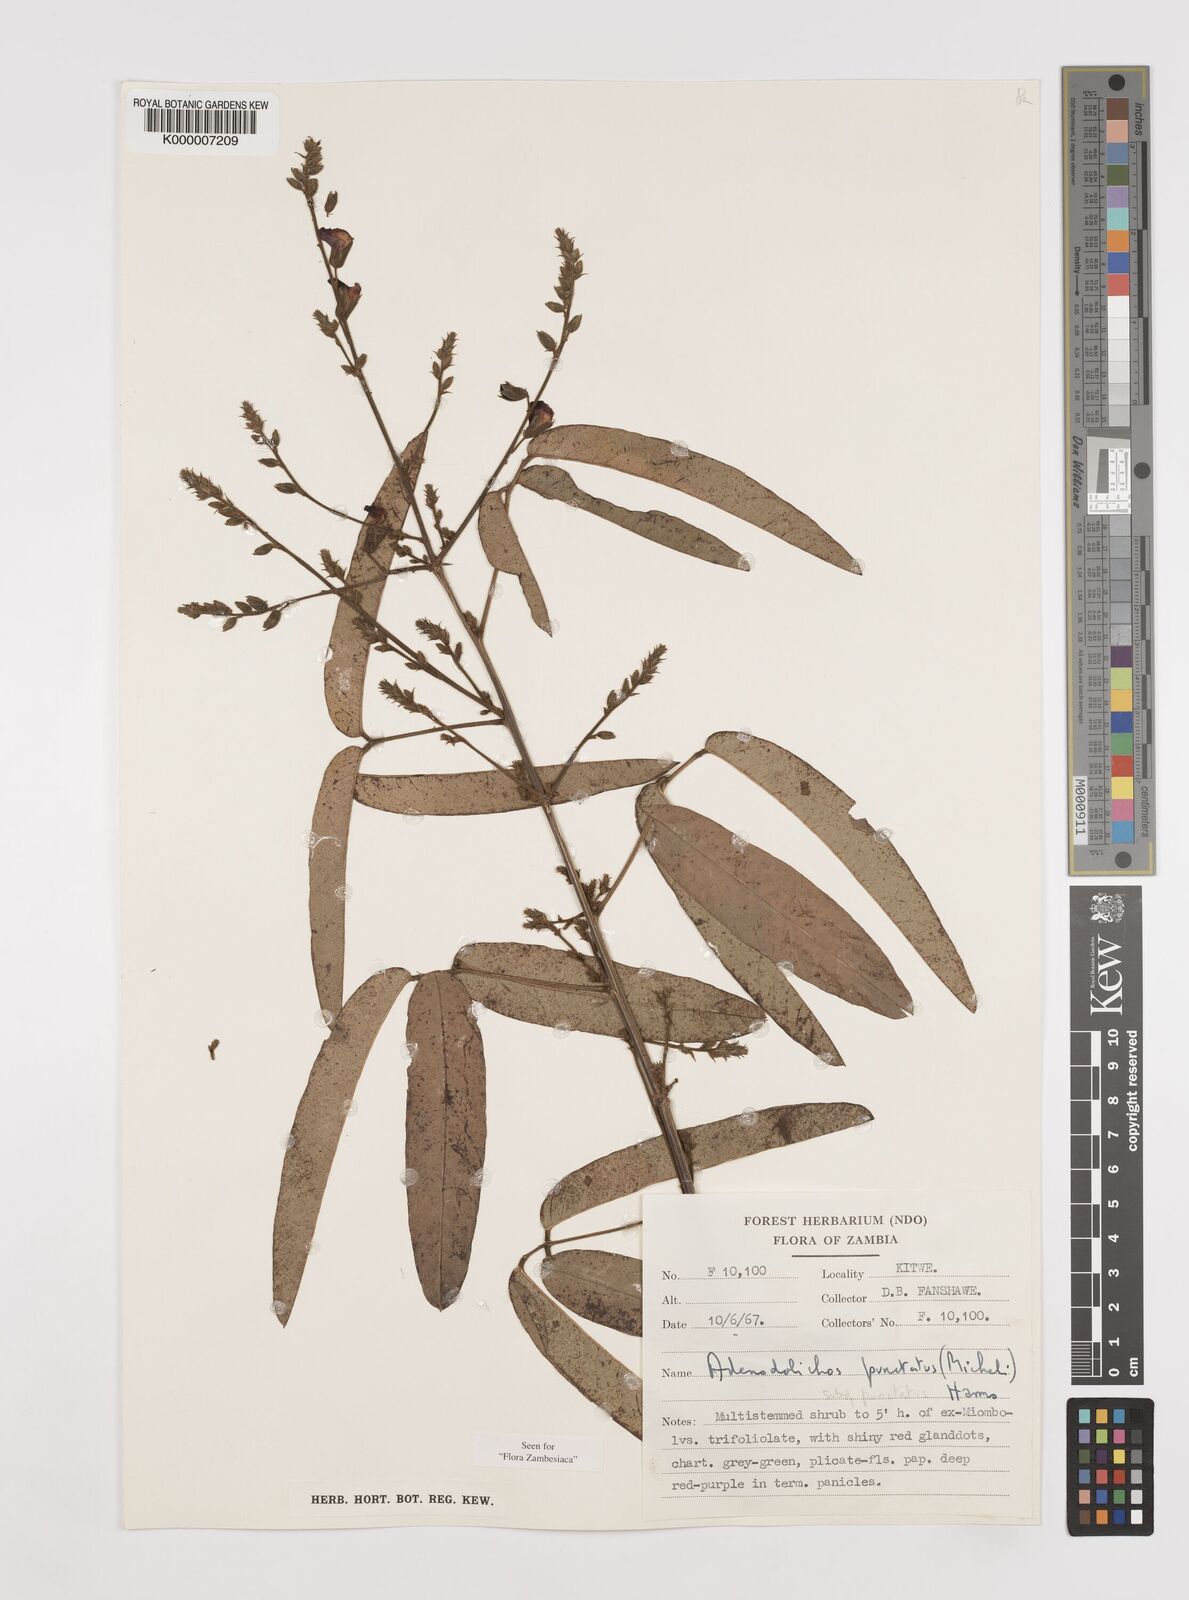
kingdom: Plantae
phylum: Tracheophyta
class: Magnoliopsida
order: Fabales
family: Fabaceae
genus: Adenodolichos
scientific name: Adenodolichos punctatus
